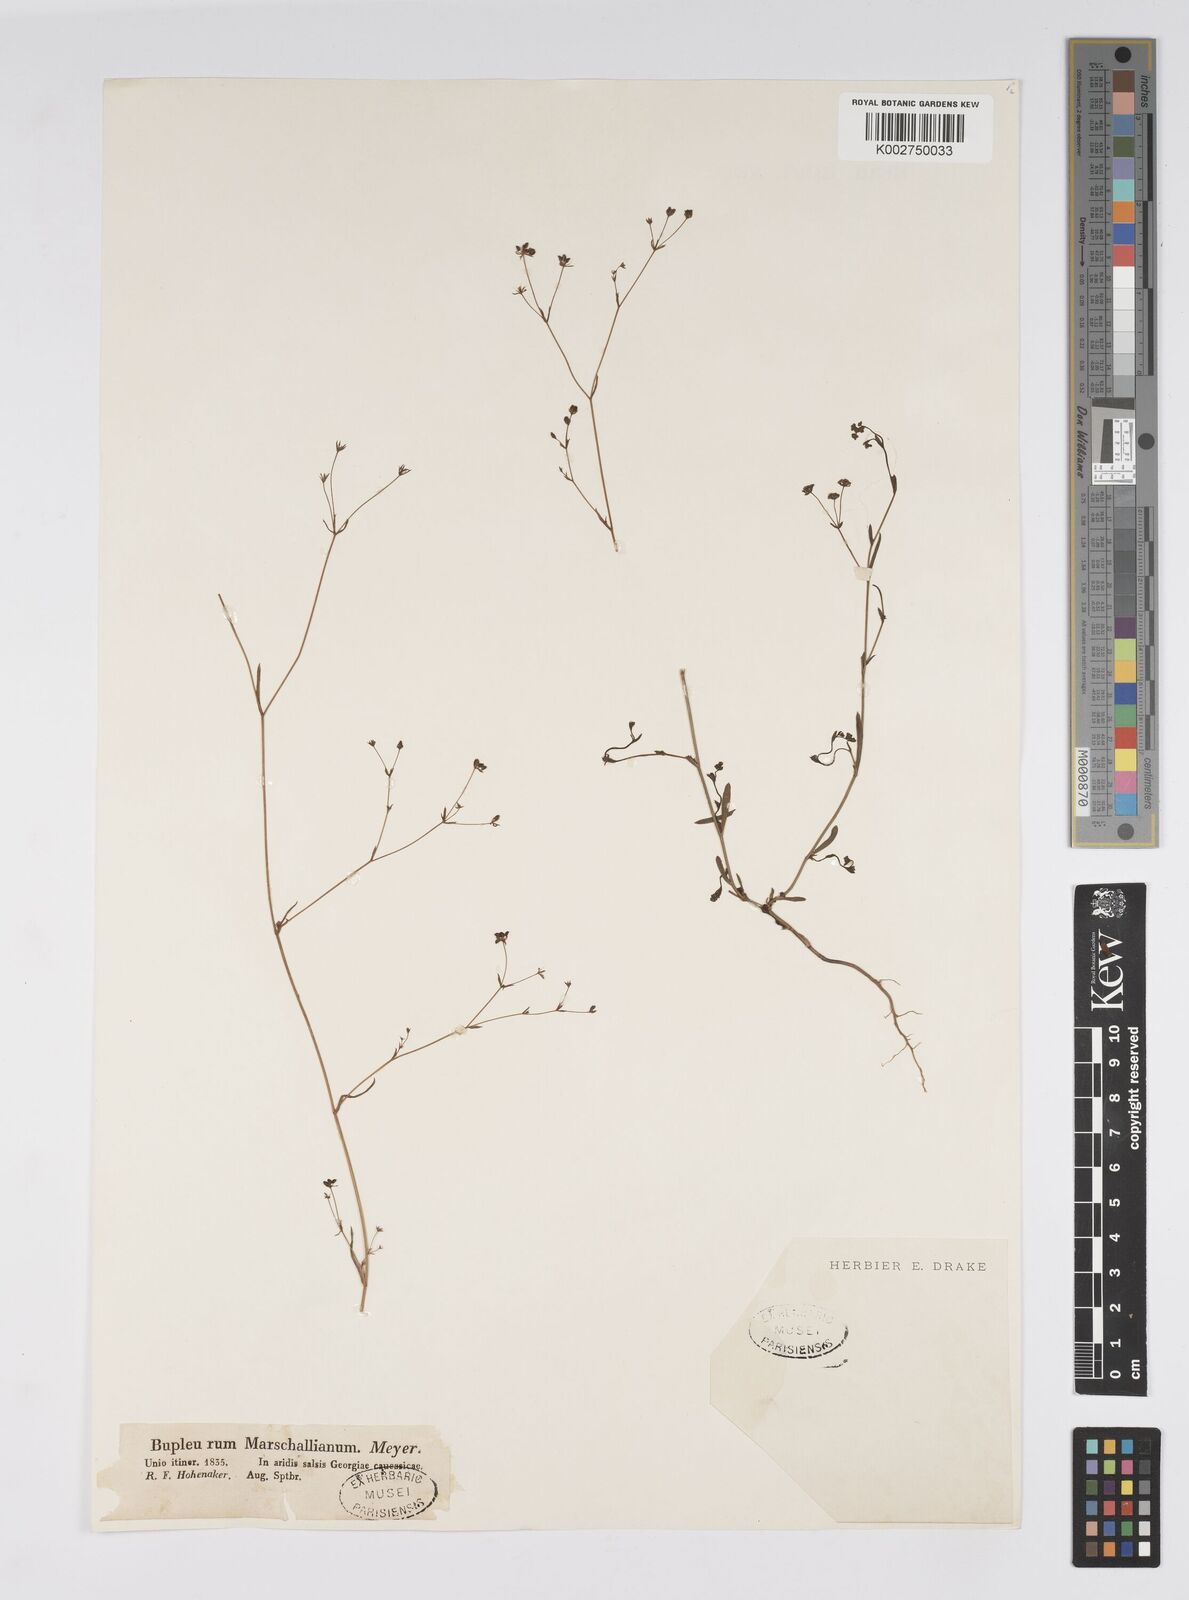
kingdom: Plantae
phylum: Tracheophyta
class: Magnoliopsida
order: Apiales
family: Apiaceae
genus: Bupleurum
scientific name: Bupleurum marschallianum
